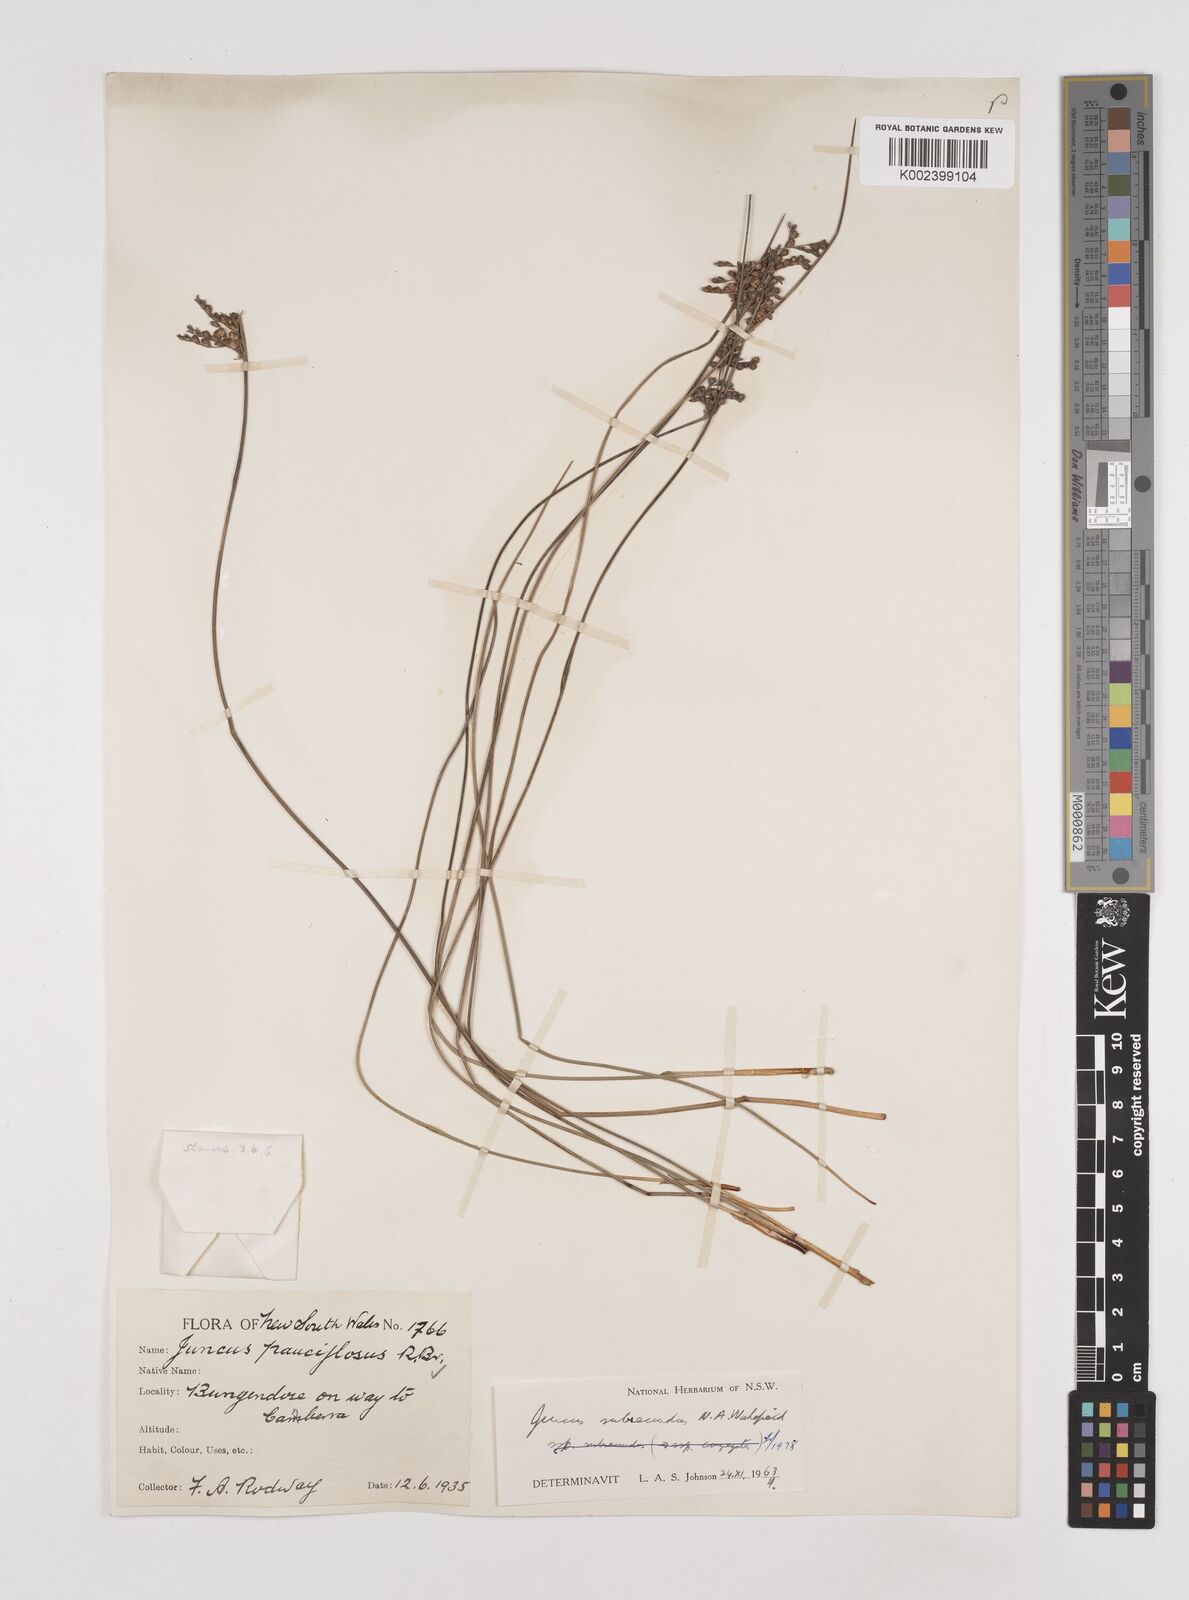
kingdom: Plantae
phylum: Tracheophyta
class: Liliopsida
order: Poales
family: Juncaceae
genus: Juncus
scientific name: Juncus subsecundus
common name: Fingered rush
